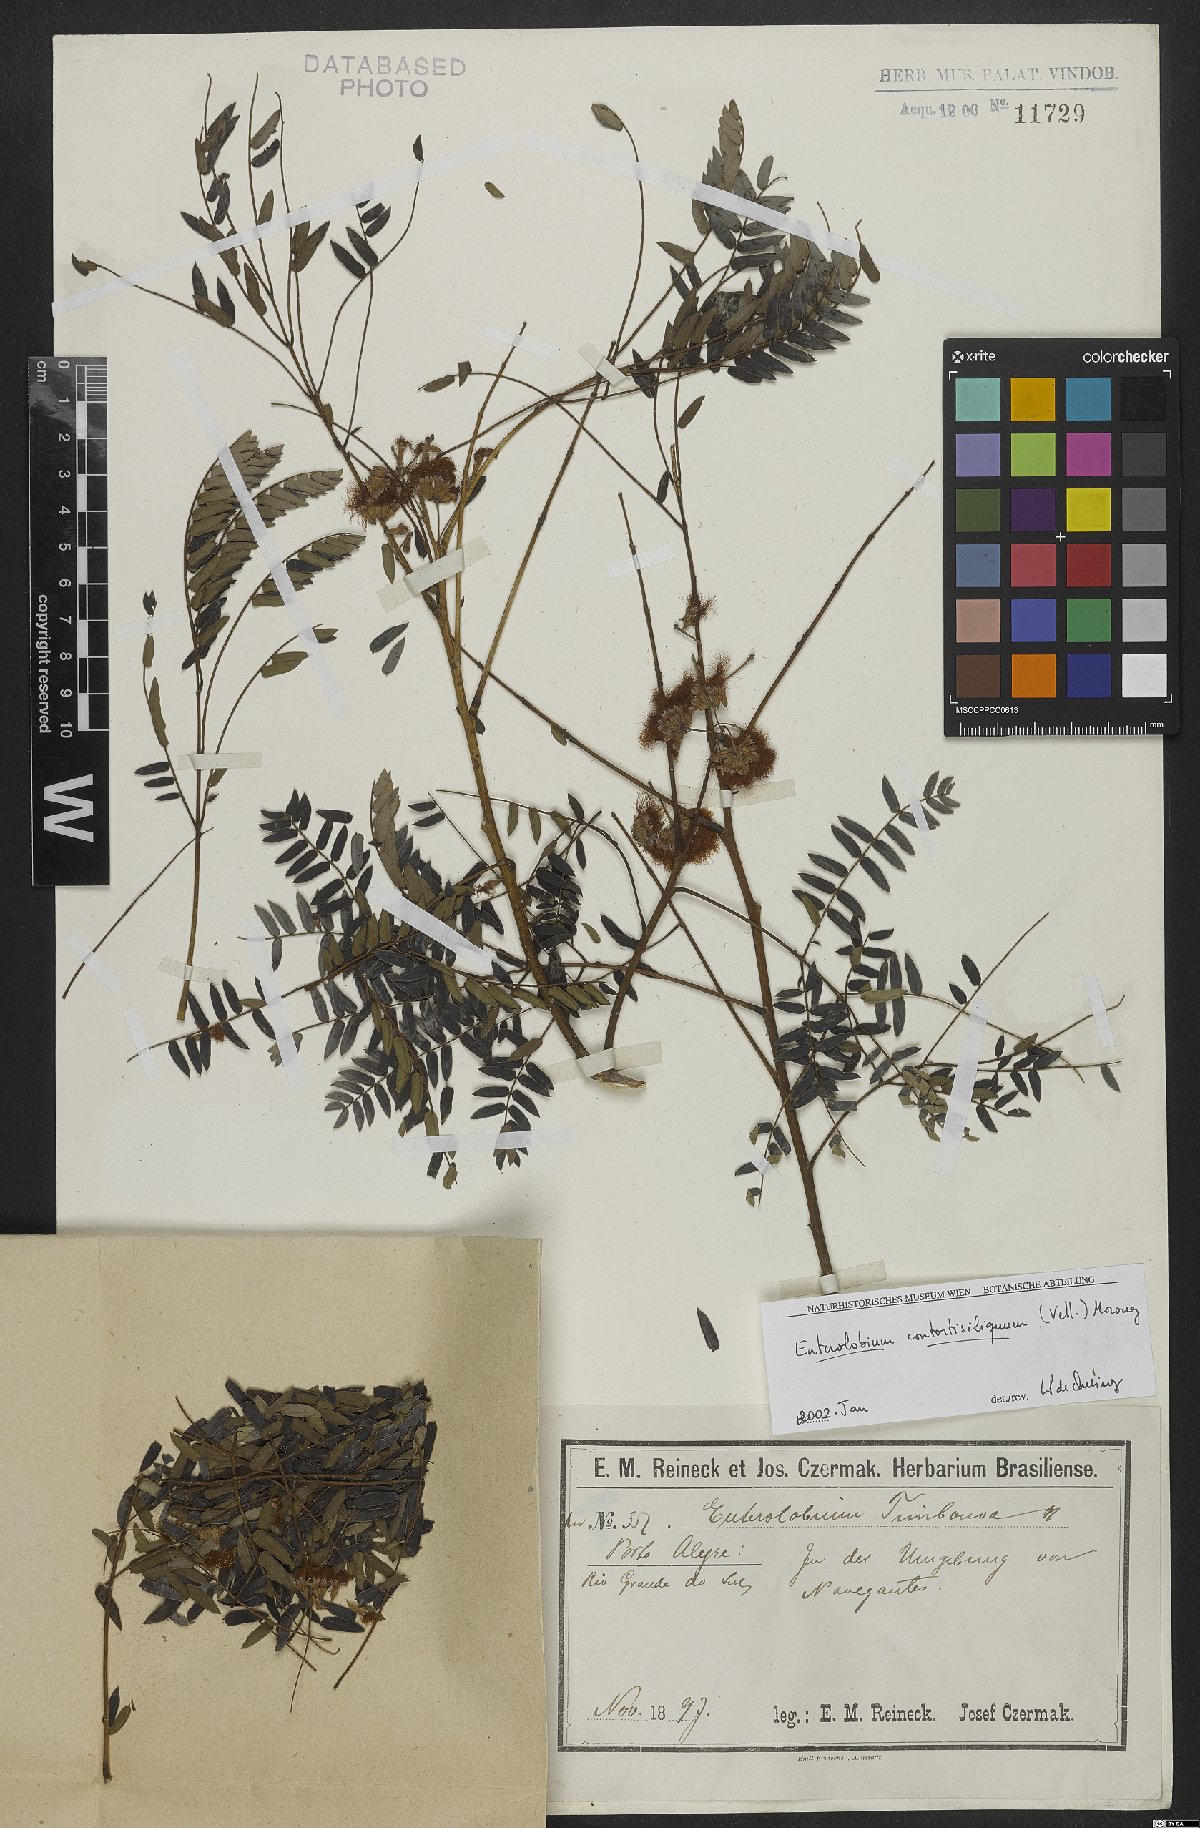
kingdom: Plantae
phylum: Tracheophyta
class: Magnoliopsida
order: Fabales
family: Fabaceae
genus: Enterolobium
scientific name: Enterolobium contortisiliquum
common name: Pacara earpod tree
